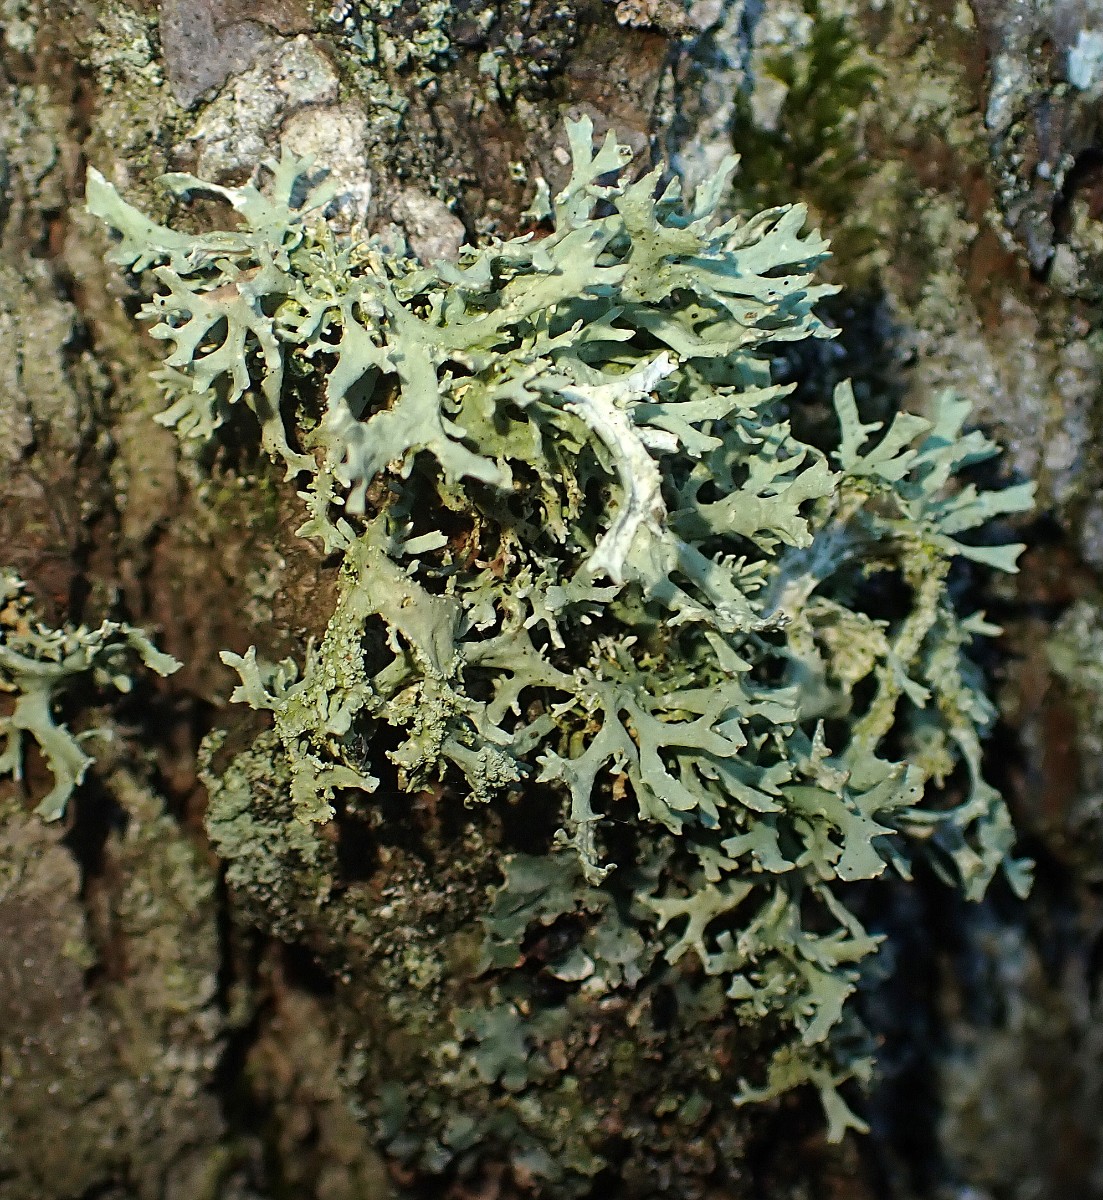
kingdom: Fungi
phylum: Ascomycota
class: Lecanoromycetes
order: Lecanorales
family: Parmeliaceae
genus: Evernia
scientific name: Evernia prunastri
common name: almindelig slåenlav
